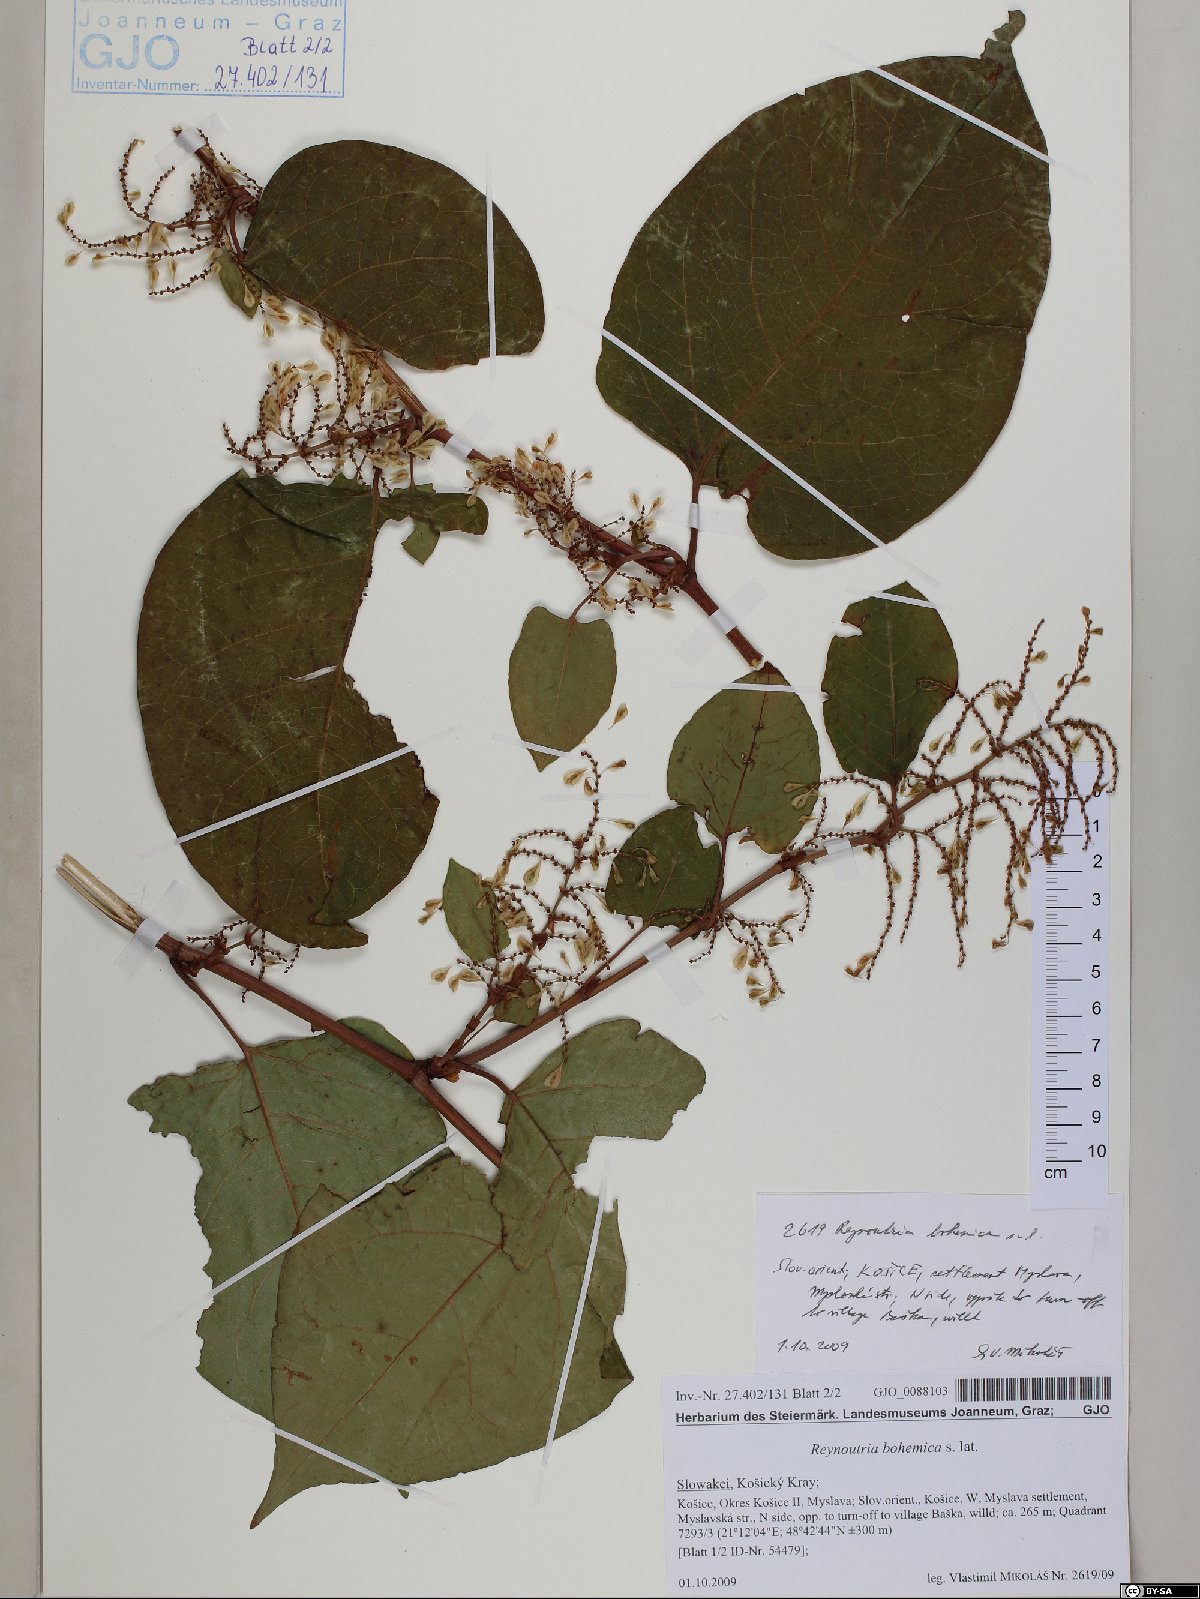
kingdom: Plantae
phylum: Tracheophyta
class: Magnoliopsida
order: Caryophyllales
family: Polygonaceae
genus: Reynoutria
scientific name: Reynoutria bohemica
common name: Bohemian knotweed
